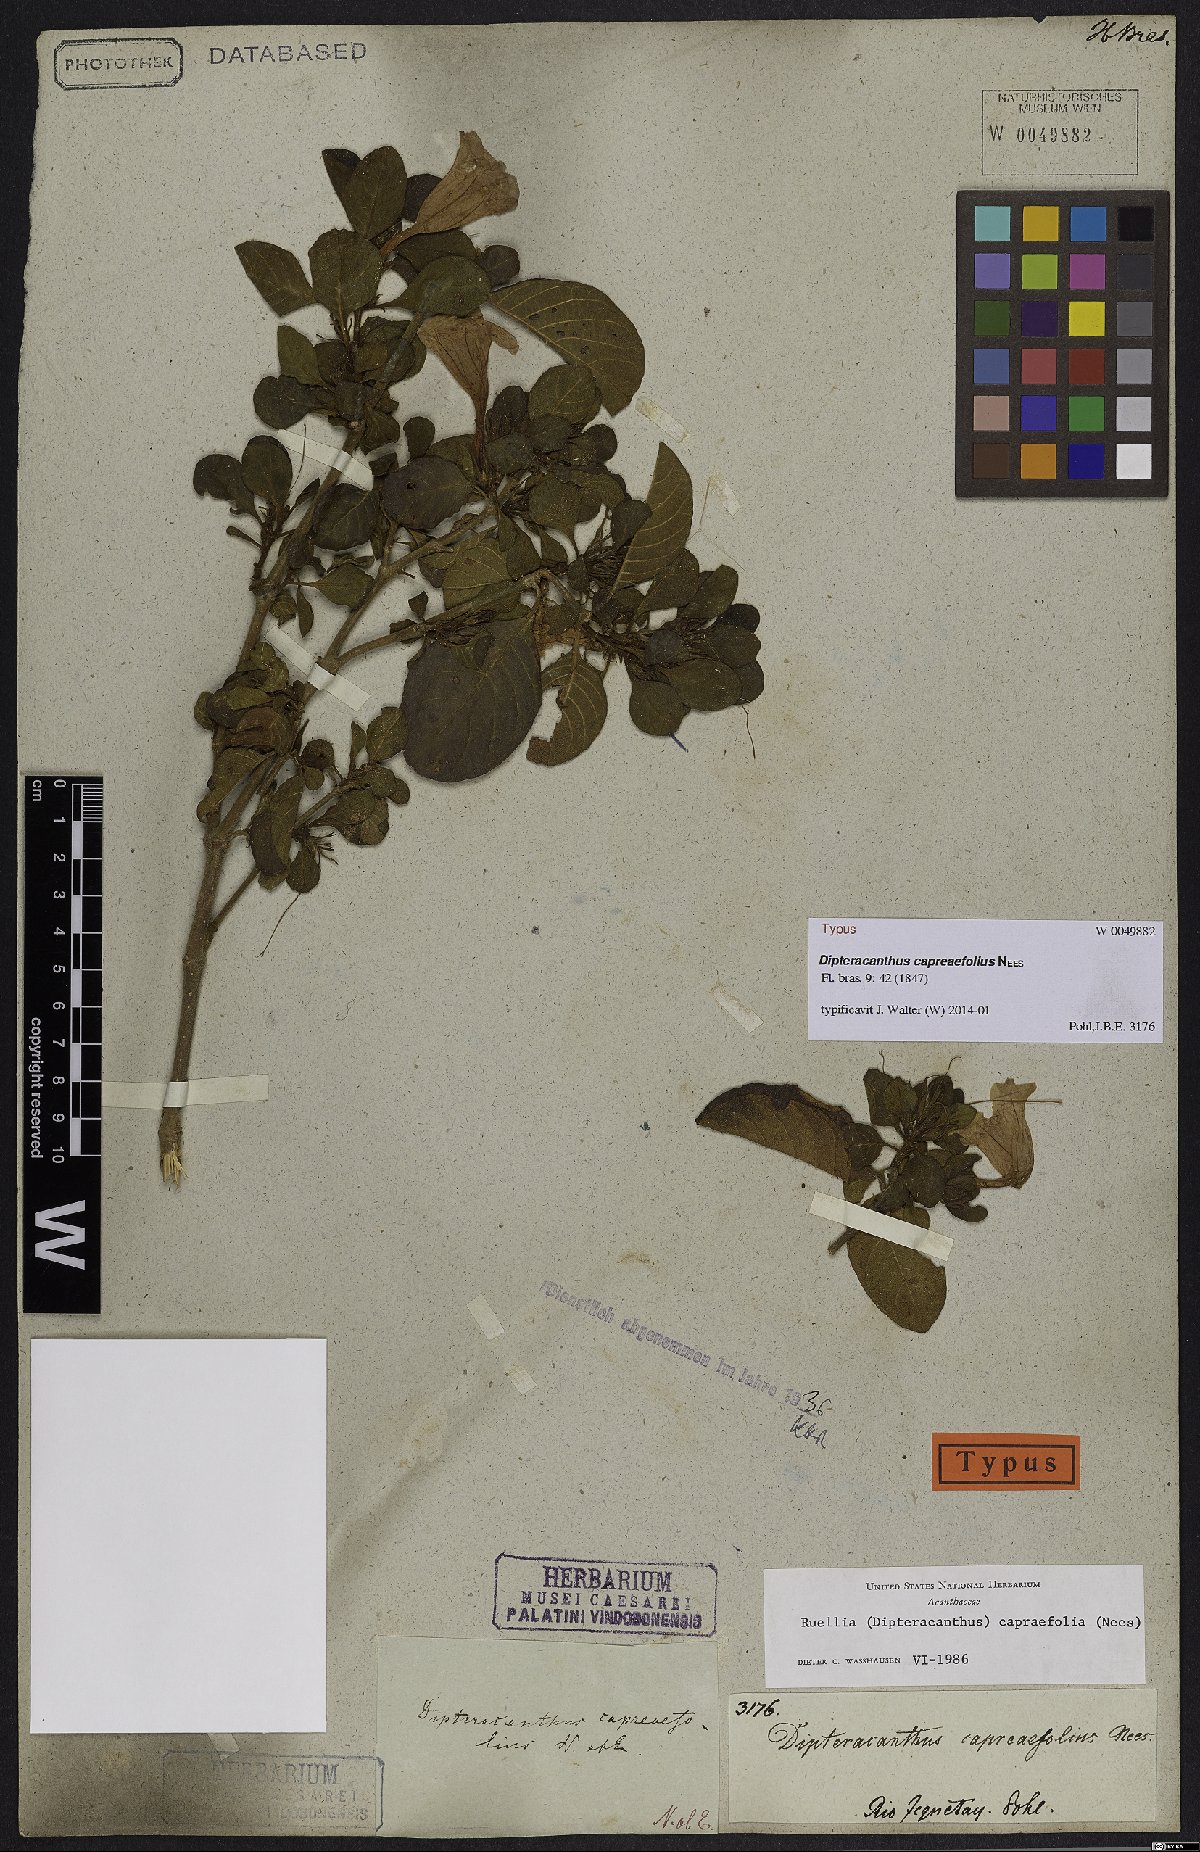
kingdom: Plantae
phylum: Tracheophyta
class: Magnoliopsida
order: Lamiales
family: Acanthaceae
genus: Ruellia
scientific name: Ruellia Dipteracanthus capreaefolius
